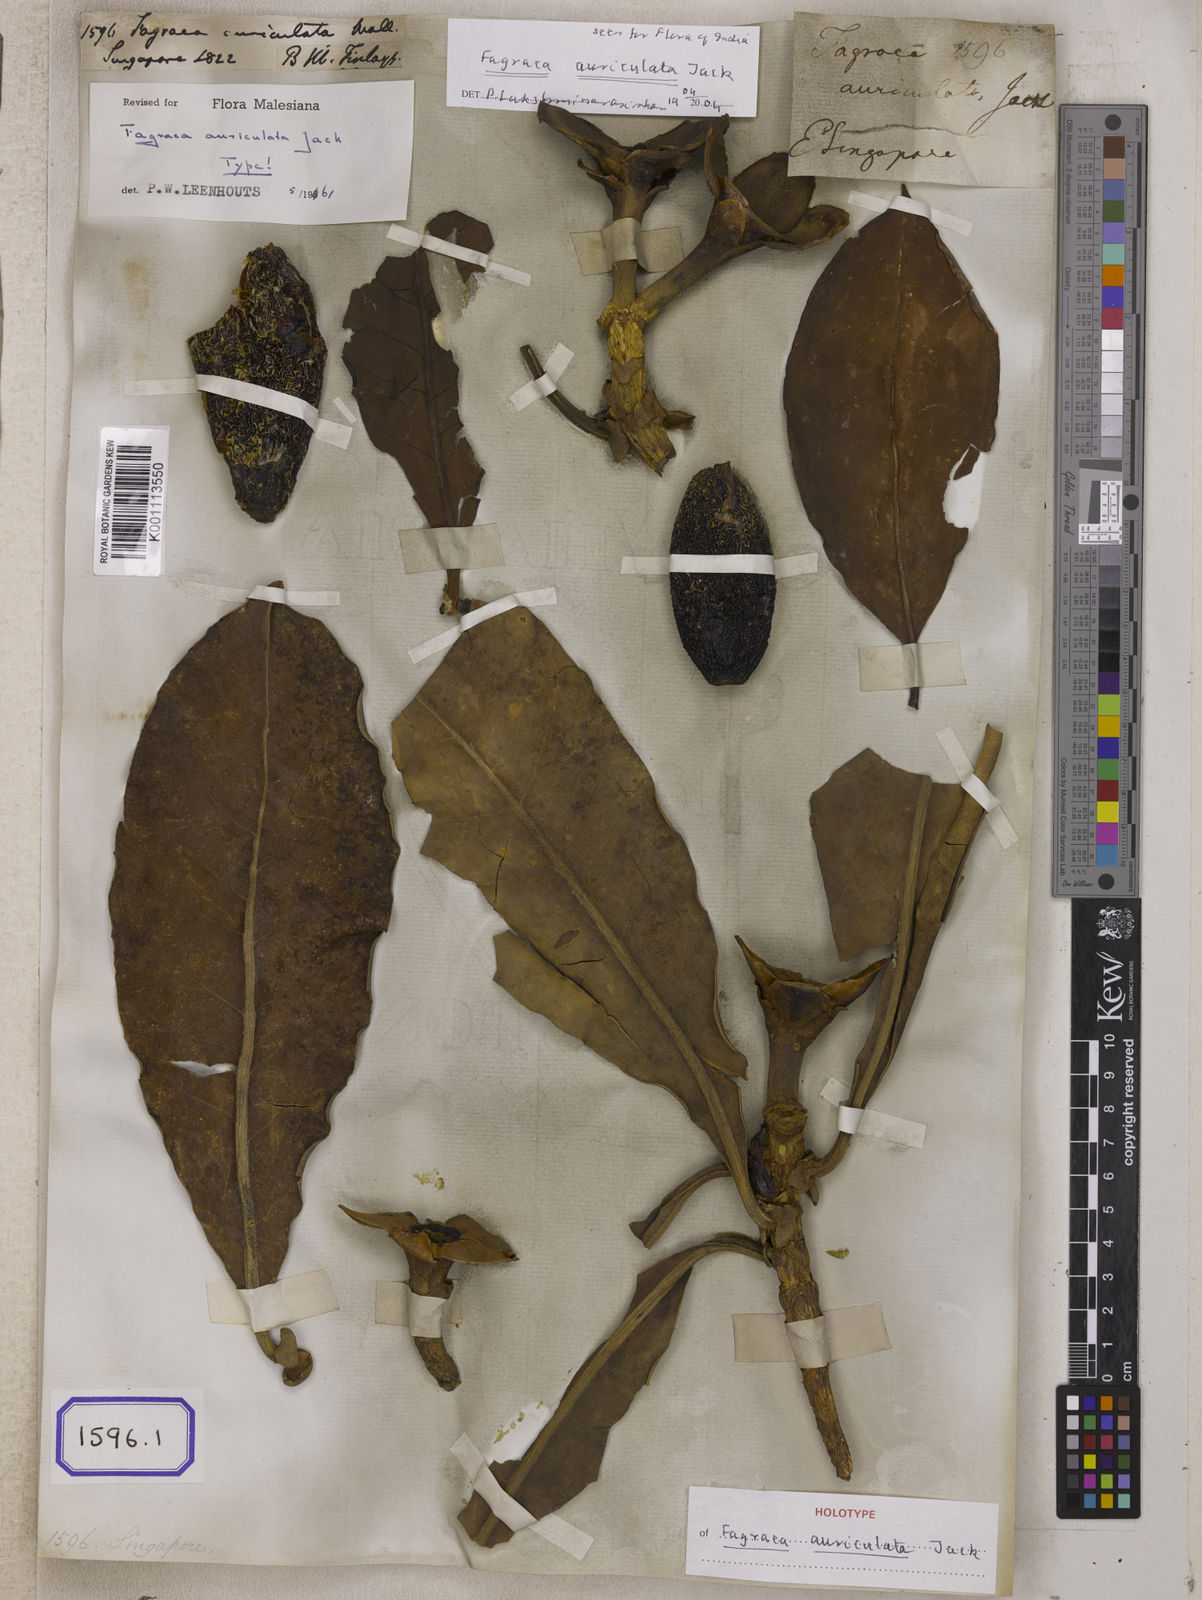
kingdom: Plantae
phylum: Tracheophyta
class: Magnoliopsida
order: Gentianales
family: Gentianaceae
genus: Fagraea
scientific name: Fagraea
